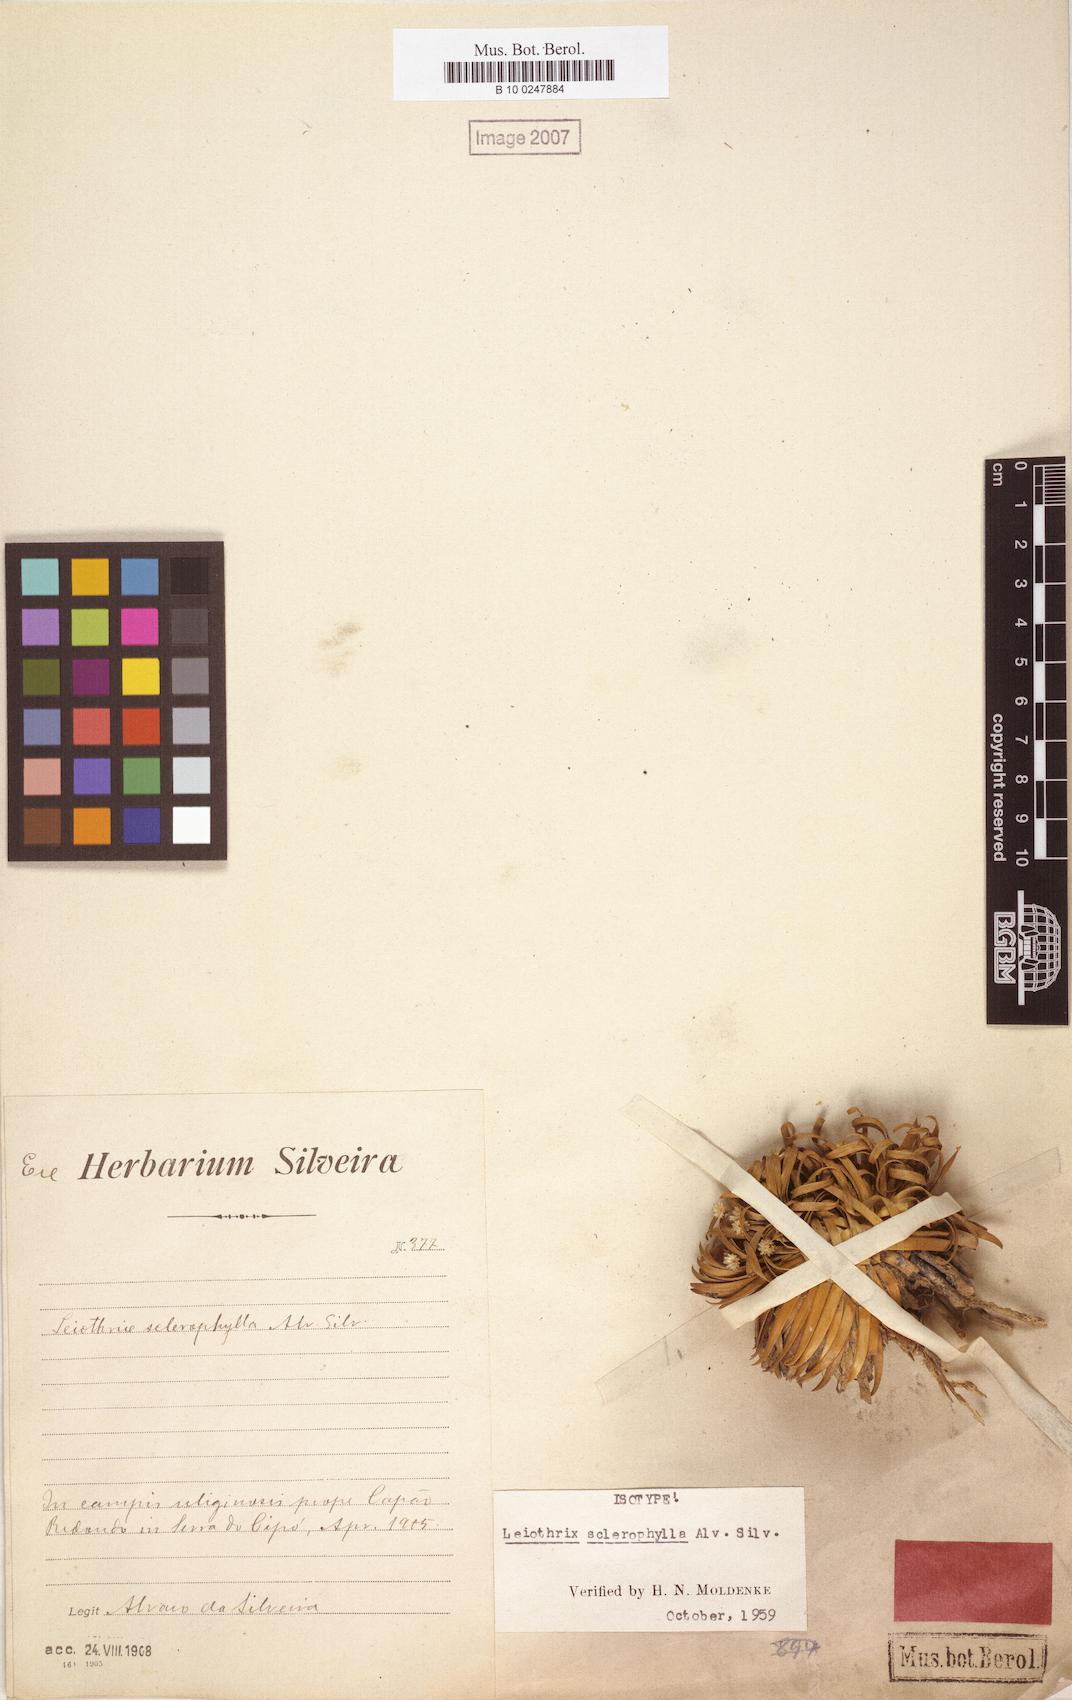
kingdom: Plantae
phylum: Tracheophyta
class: Liliopsida
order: Poales
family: Eriocaulaceae
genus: Leiothrix
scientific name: Leiothrix sclerophylla
